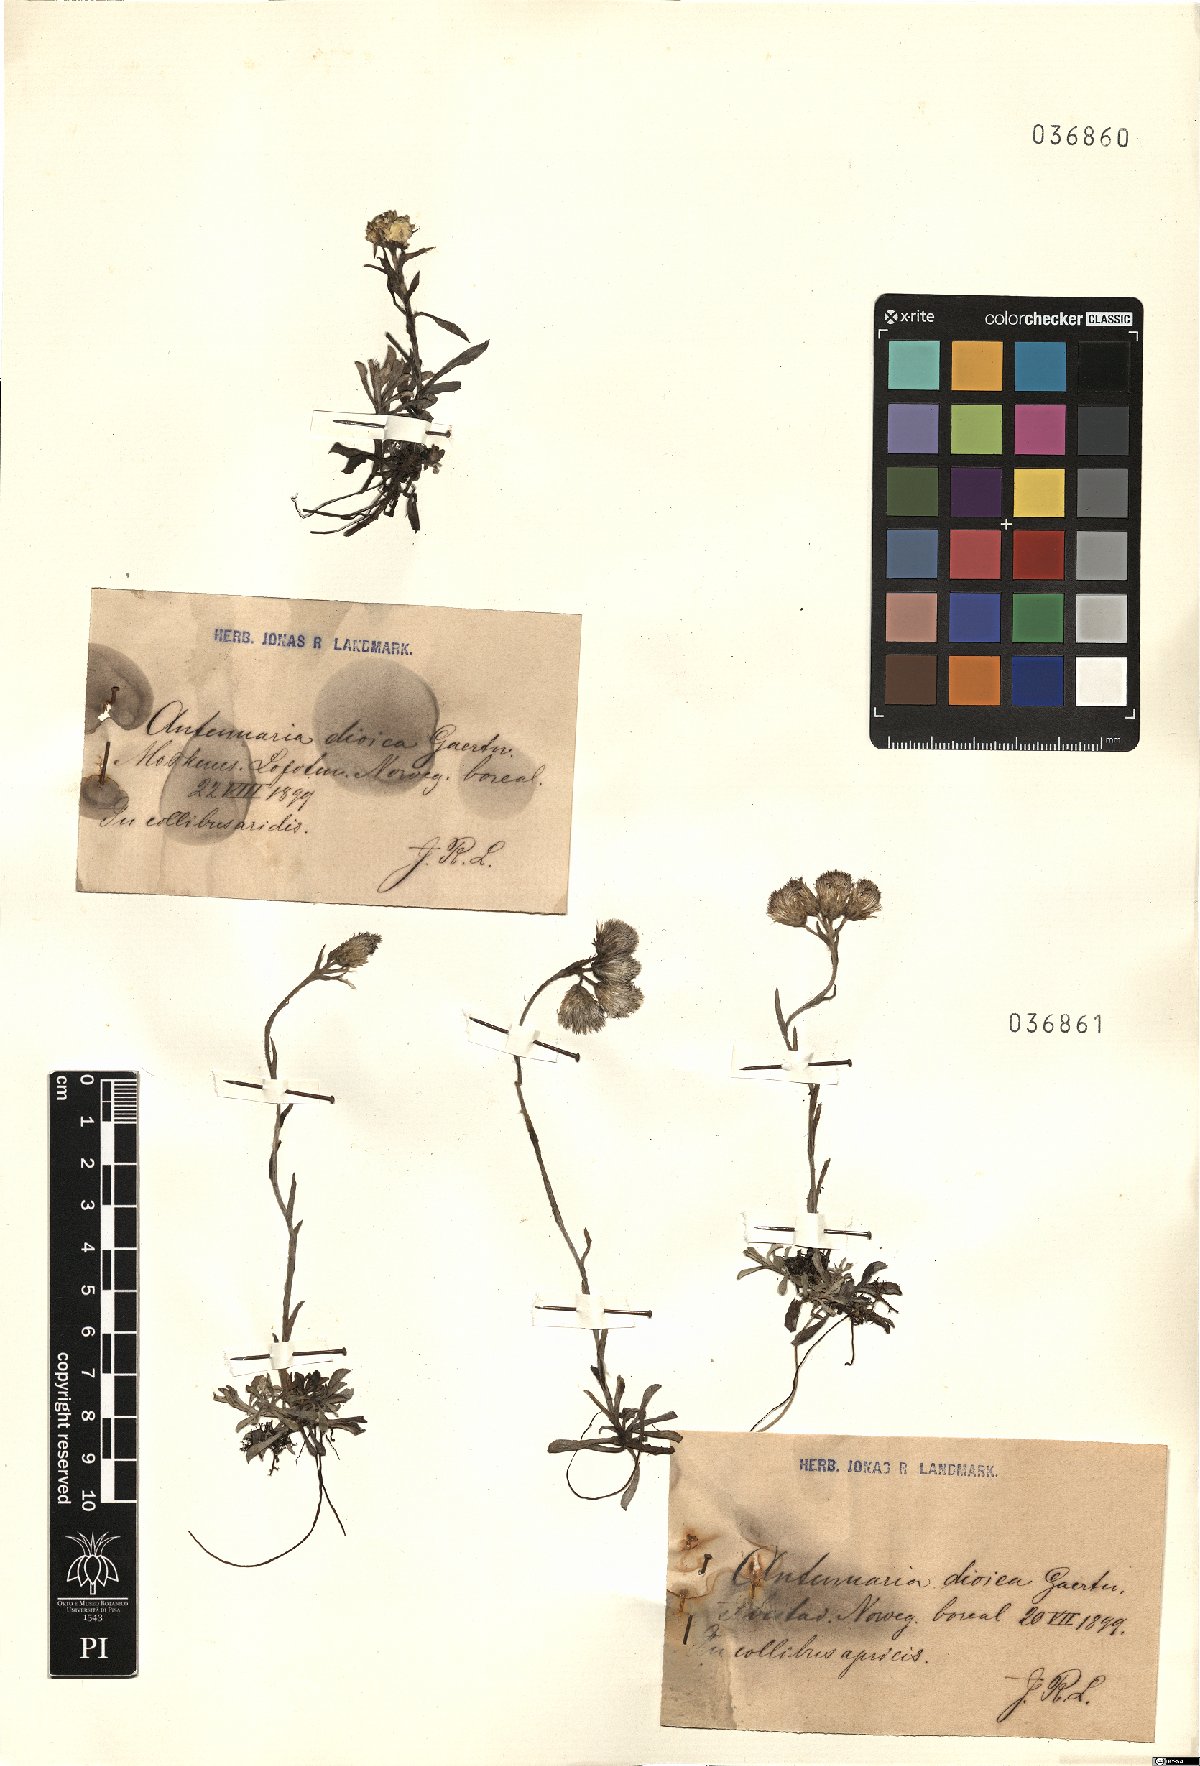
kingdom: Plantae
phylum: Tracheophyta
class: Magnoliopsida
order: Asterales
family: Asteraceae
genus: Antennaria
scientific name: Antennaria dioica
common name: Mountain everlasting
